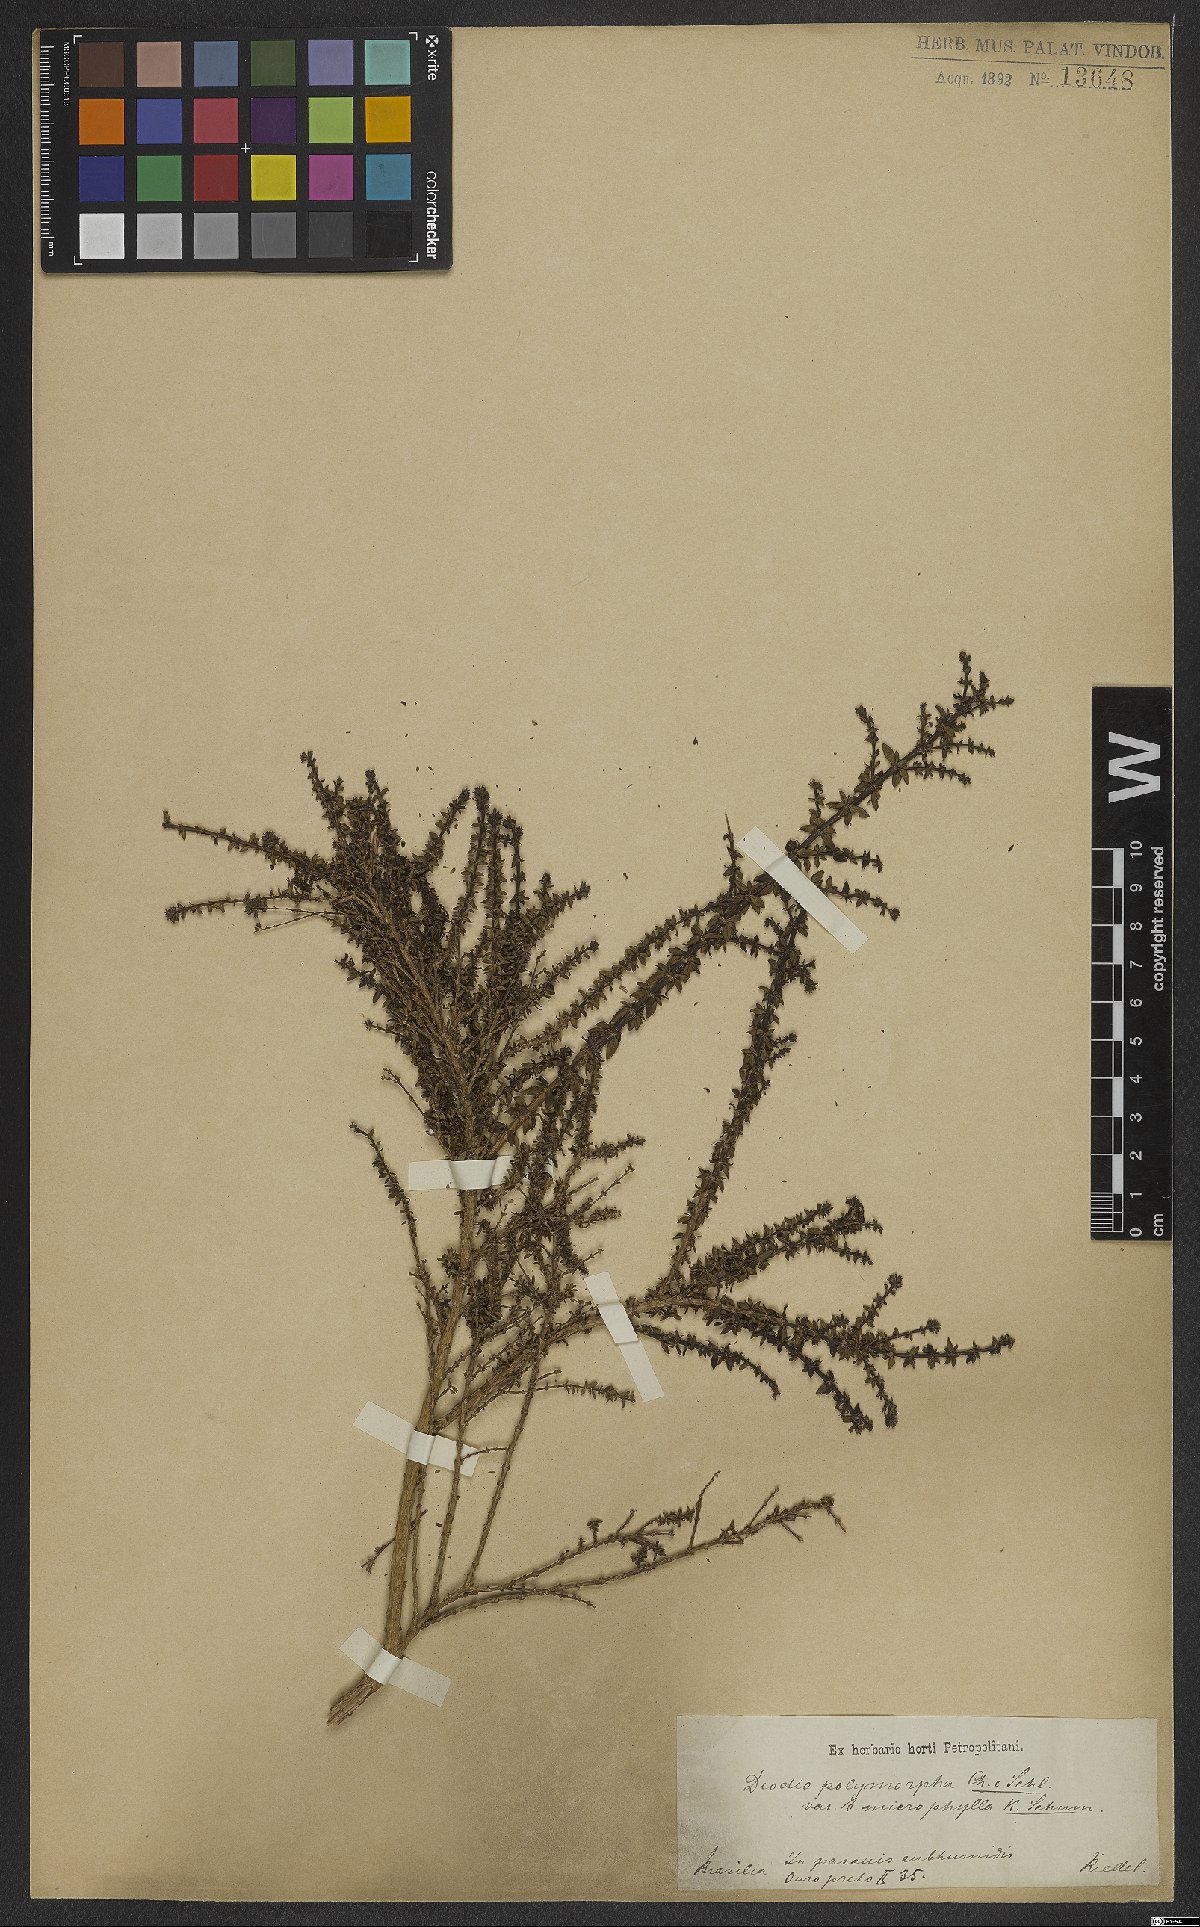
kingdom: Plantae
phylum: Tracheophyta
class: Magnoliopsida
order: Gentianales
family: Rubiaceae
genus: Galianthe
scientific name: Galianthe brasiliensis
